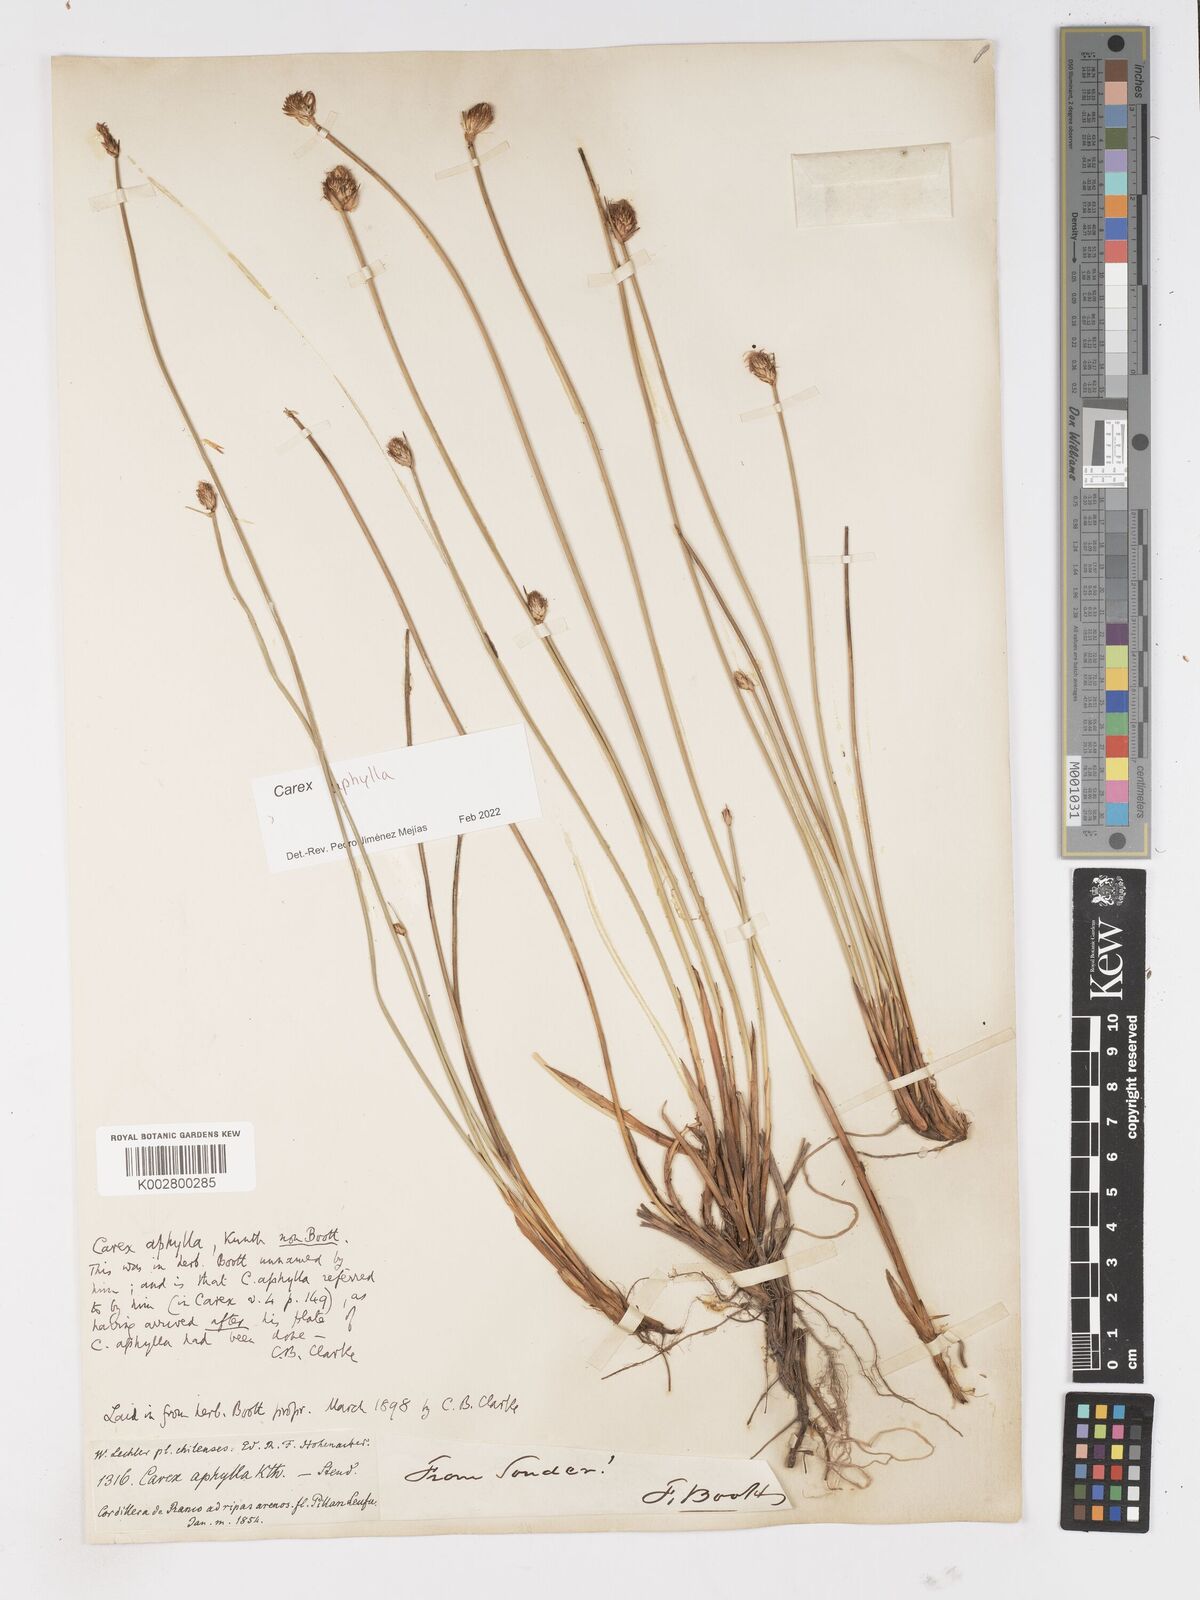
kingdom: Plantae
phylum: Tracheophyta
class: Liliopsida
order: Poales
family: Cyperaceae
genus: Carex
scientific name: Carex aphylla
